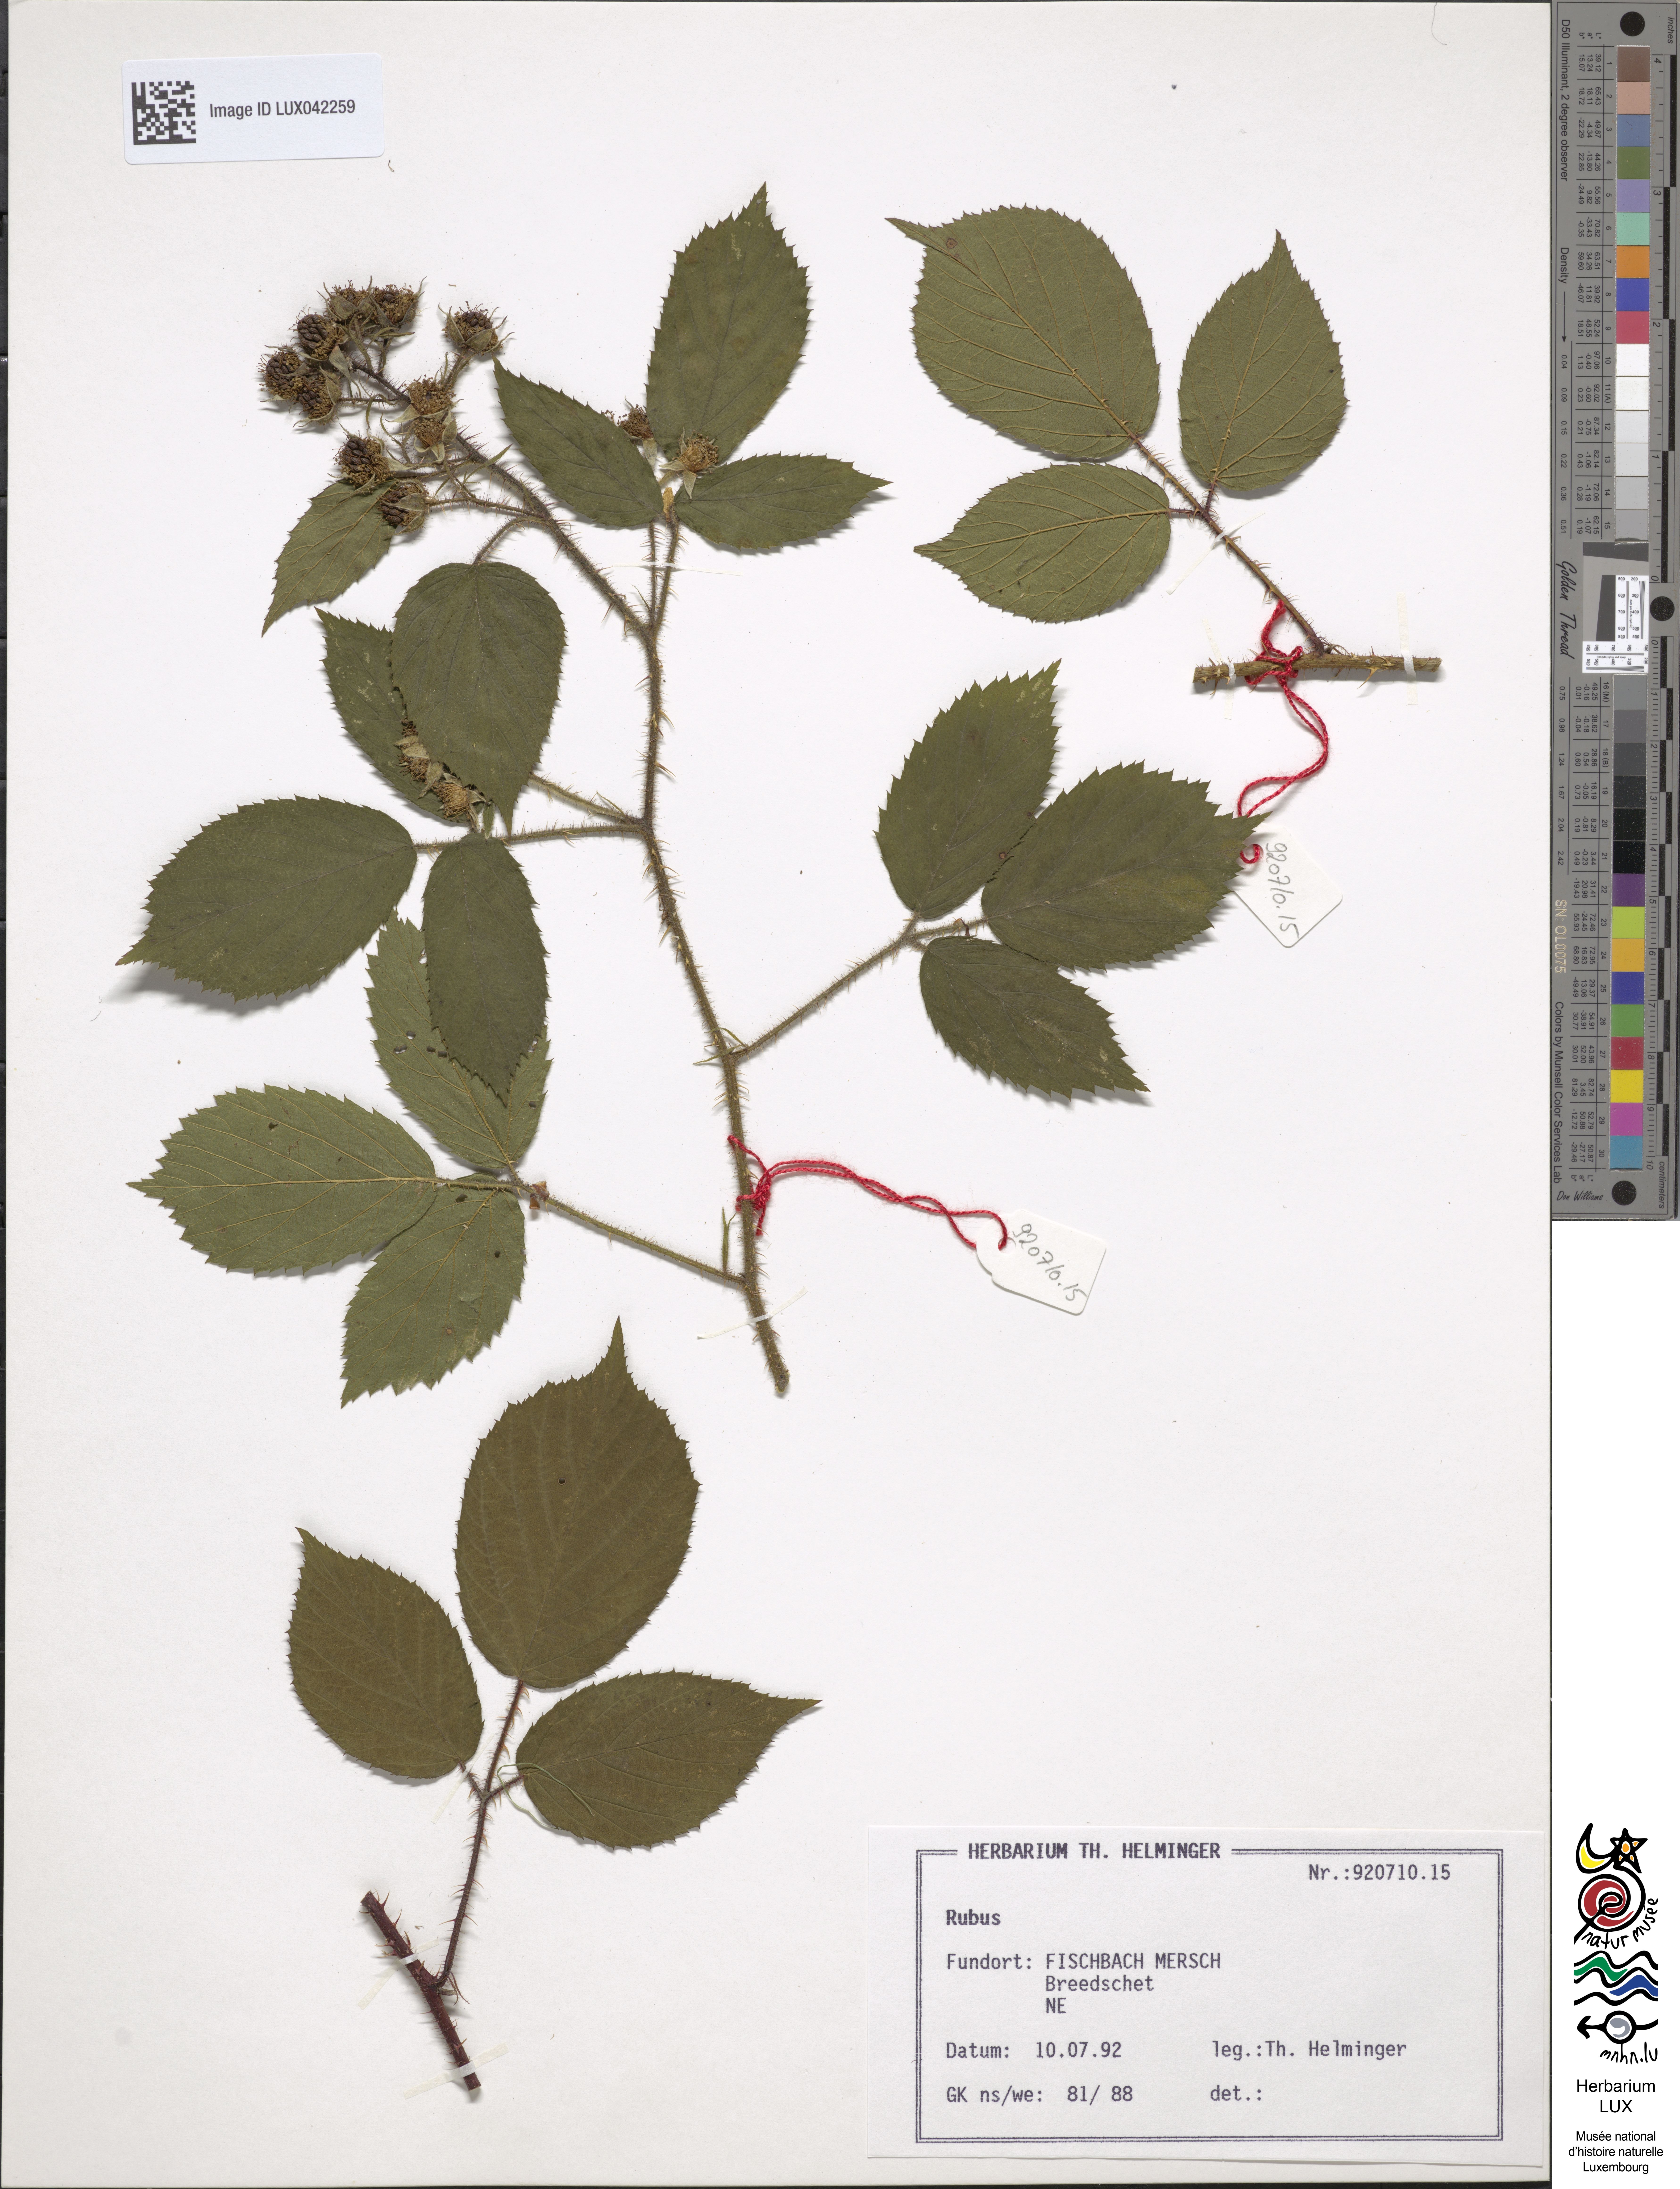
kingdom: Plantae
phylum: Tracheophyta
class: Magnoliopsida
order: Rosales
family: Rosaceae
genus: Rubus
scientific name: Rubus
